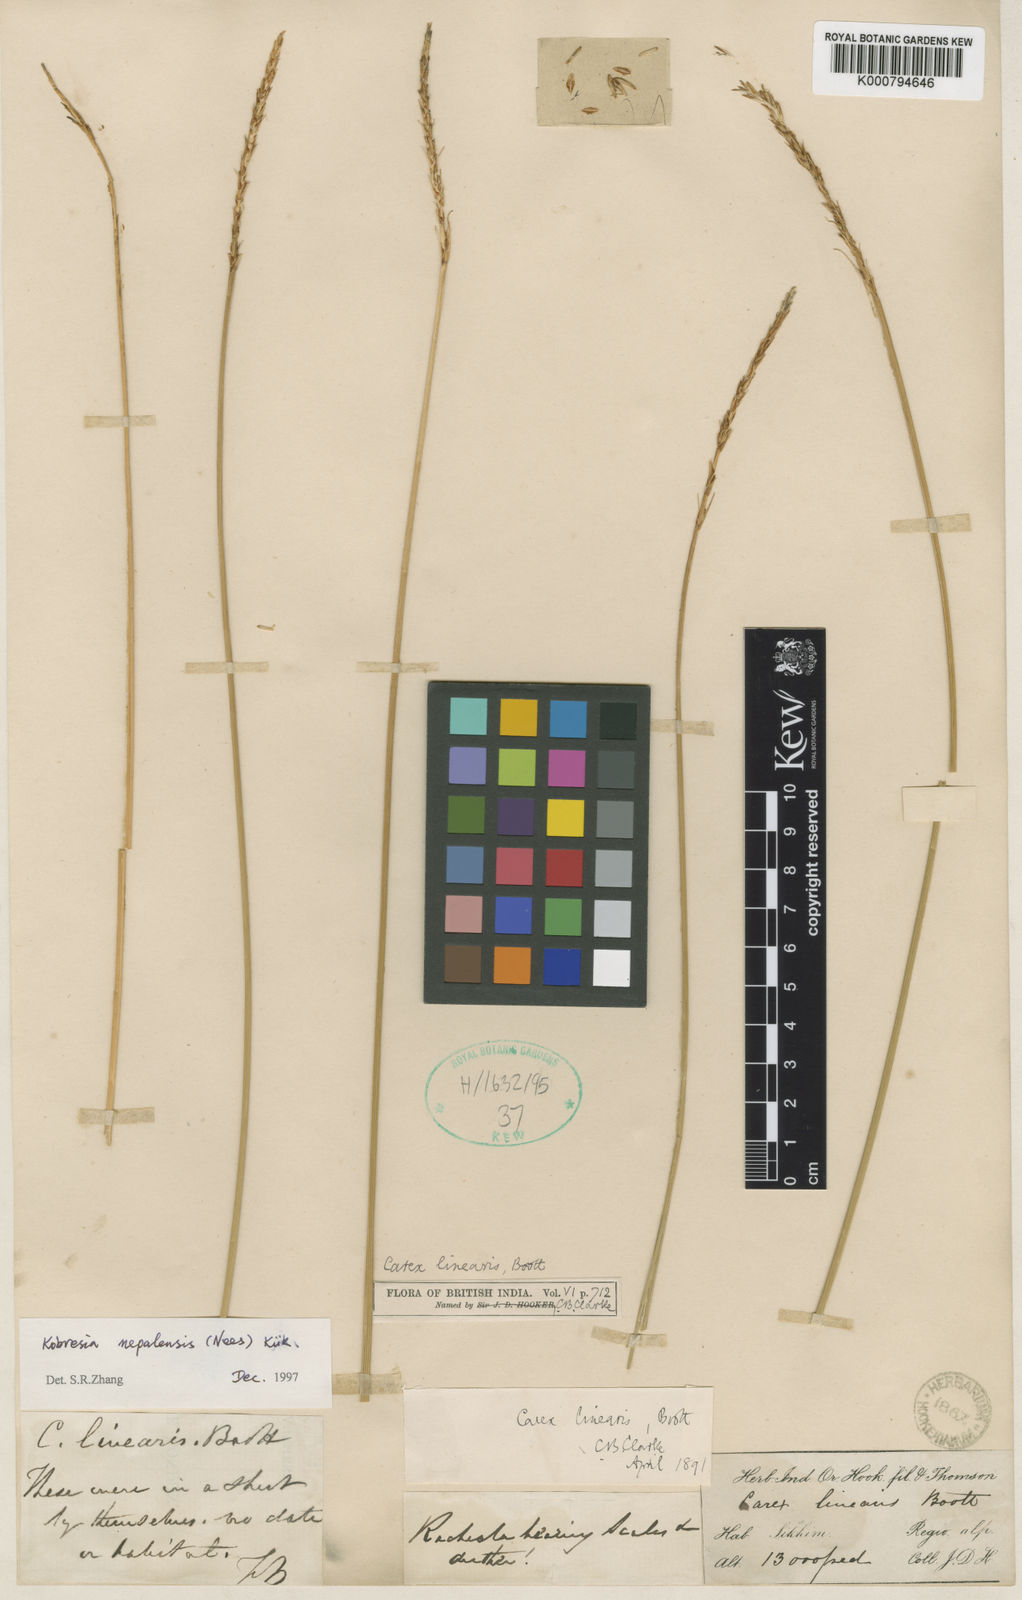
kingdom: Plantae
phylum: Tracheophyta
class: Liliopsida
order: Poales
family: Cyperaceae
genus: Carex
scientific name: Carex
